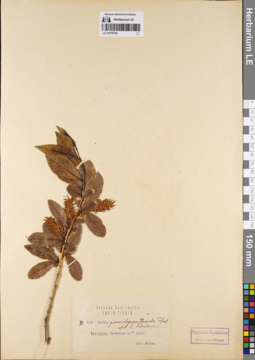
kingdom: Plantae
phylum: Tracheophyta
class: Magnoliopsida
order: Malpighiales
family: Salicaceae
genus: Salix
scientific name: Salix pseudopentandra
